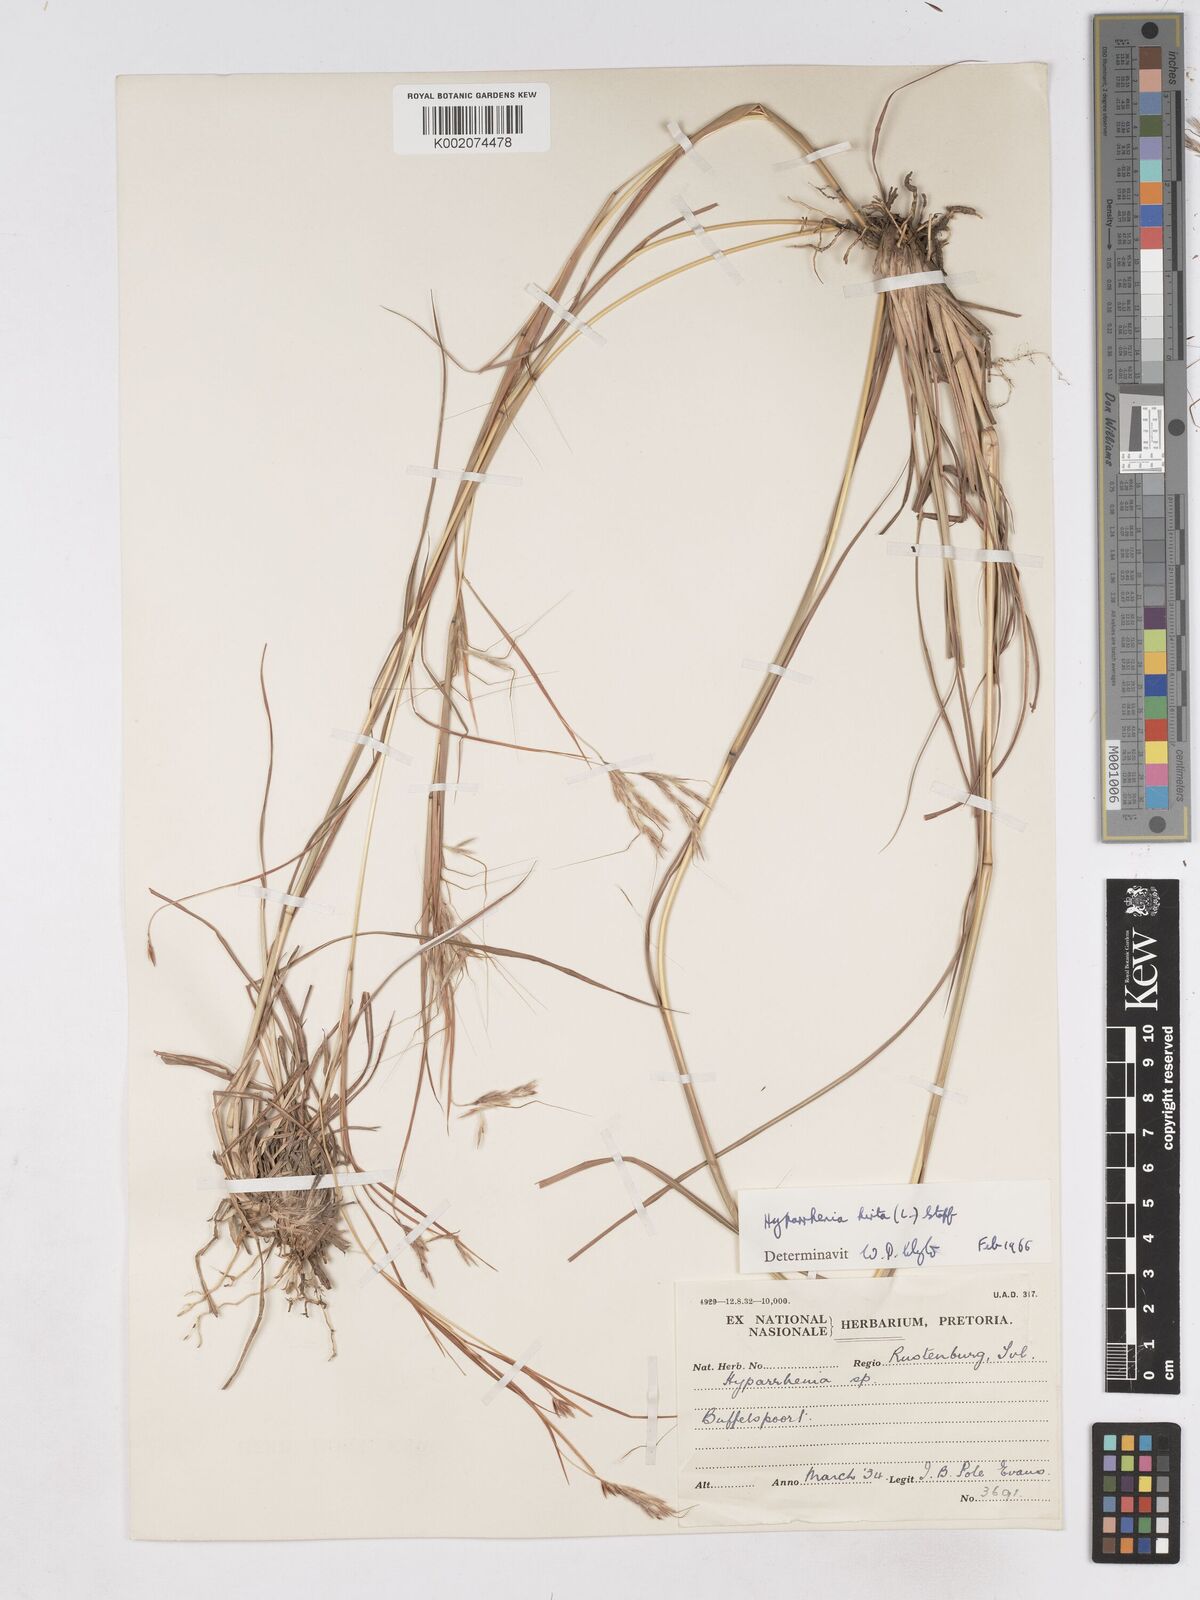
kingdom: Plantae
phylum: Tracheophyta
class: Liliopsida
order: Poales
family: Poaceae
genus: Hyparrhenia
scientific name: Hyparrhenia hirta
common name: Thatching grass
